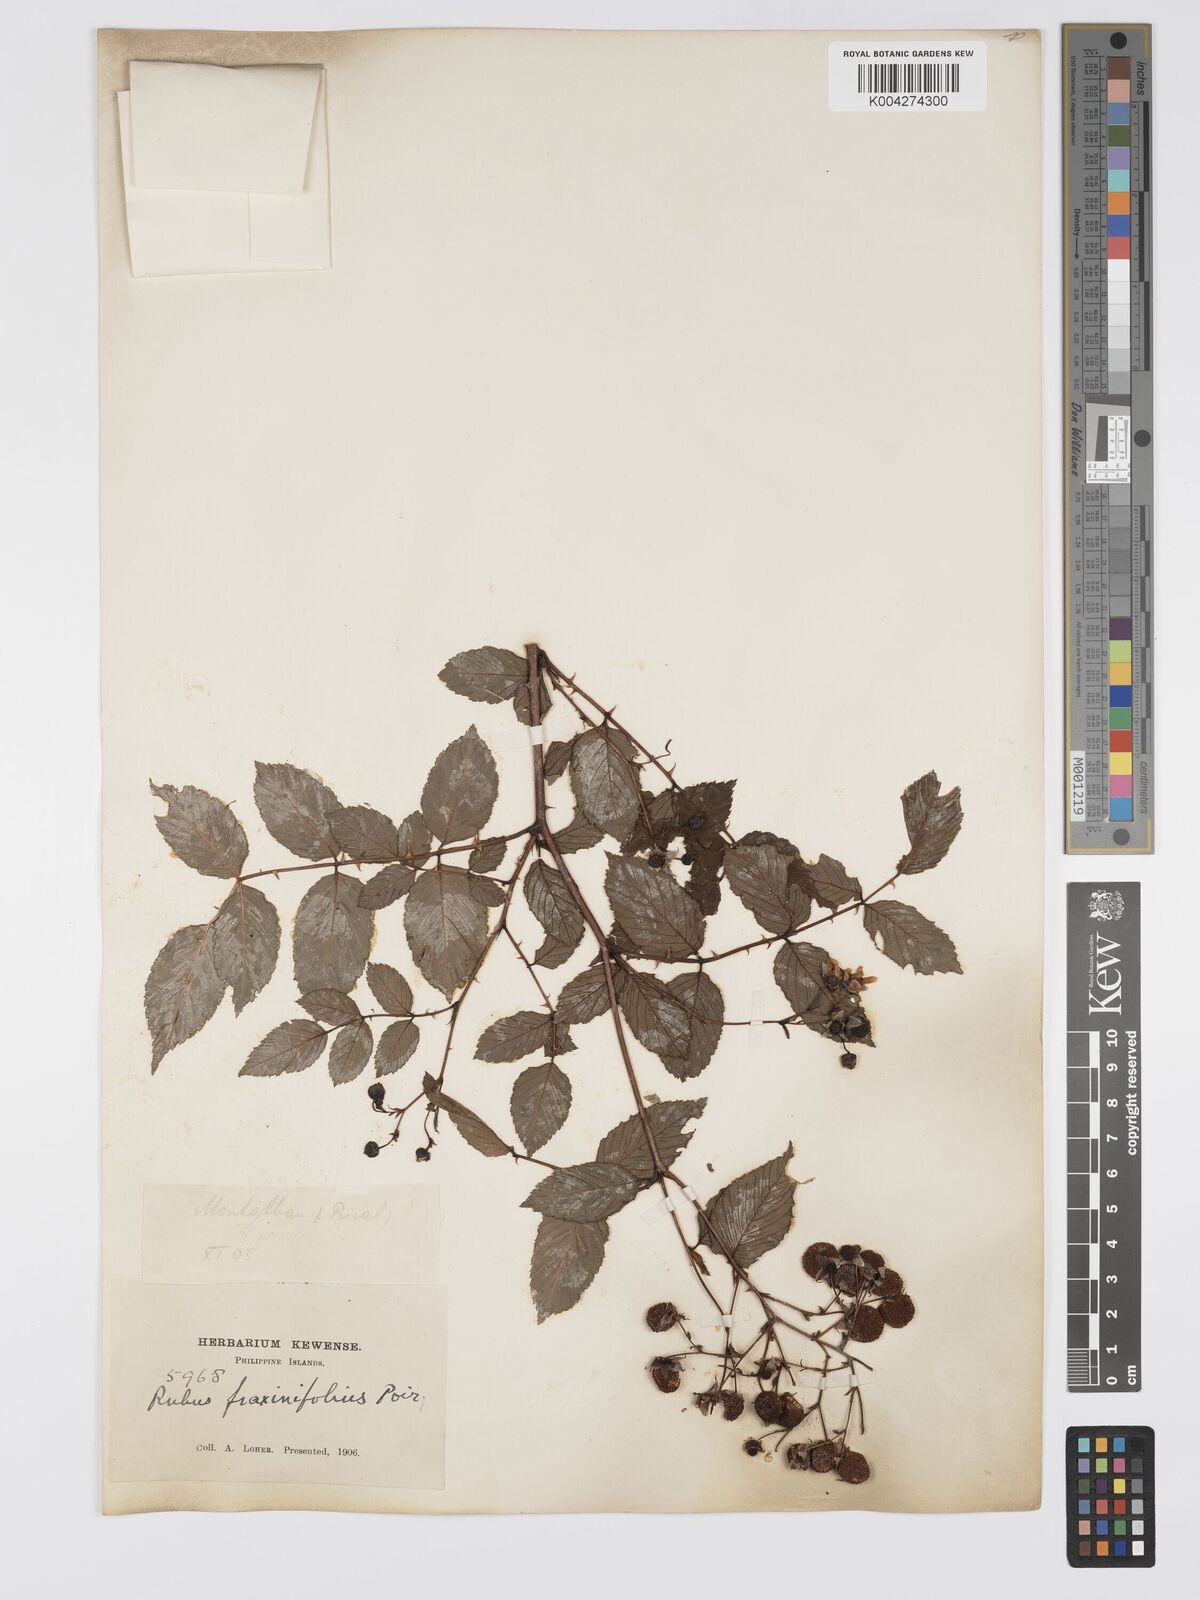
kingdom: Plantae
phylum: Tracheophyta
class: Magnoliopsida
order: Rosales
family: Rosaceae
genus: Rubus
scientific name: Rubus fraxinifolius
